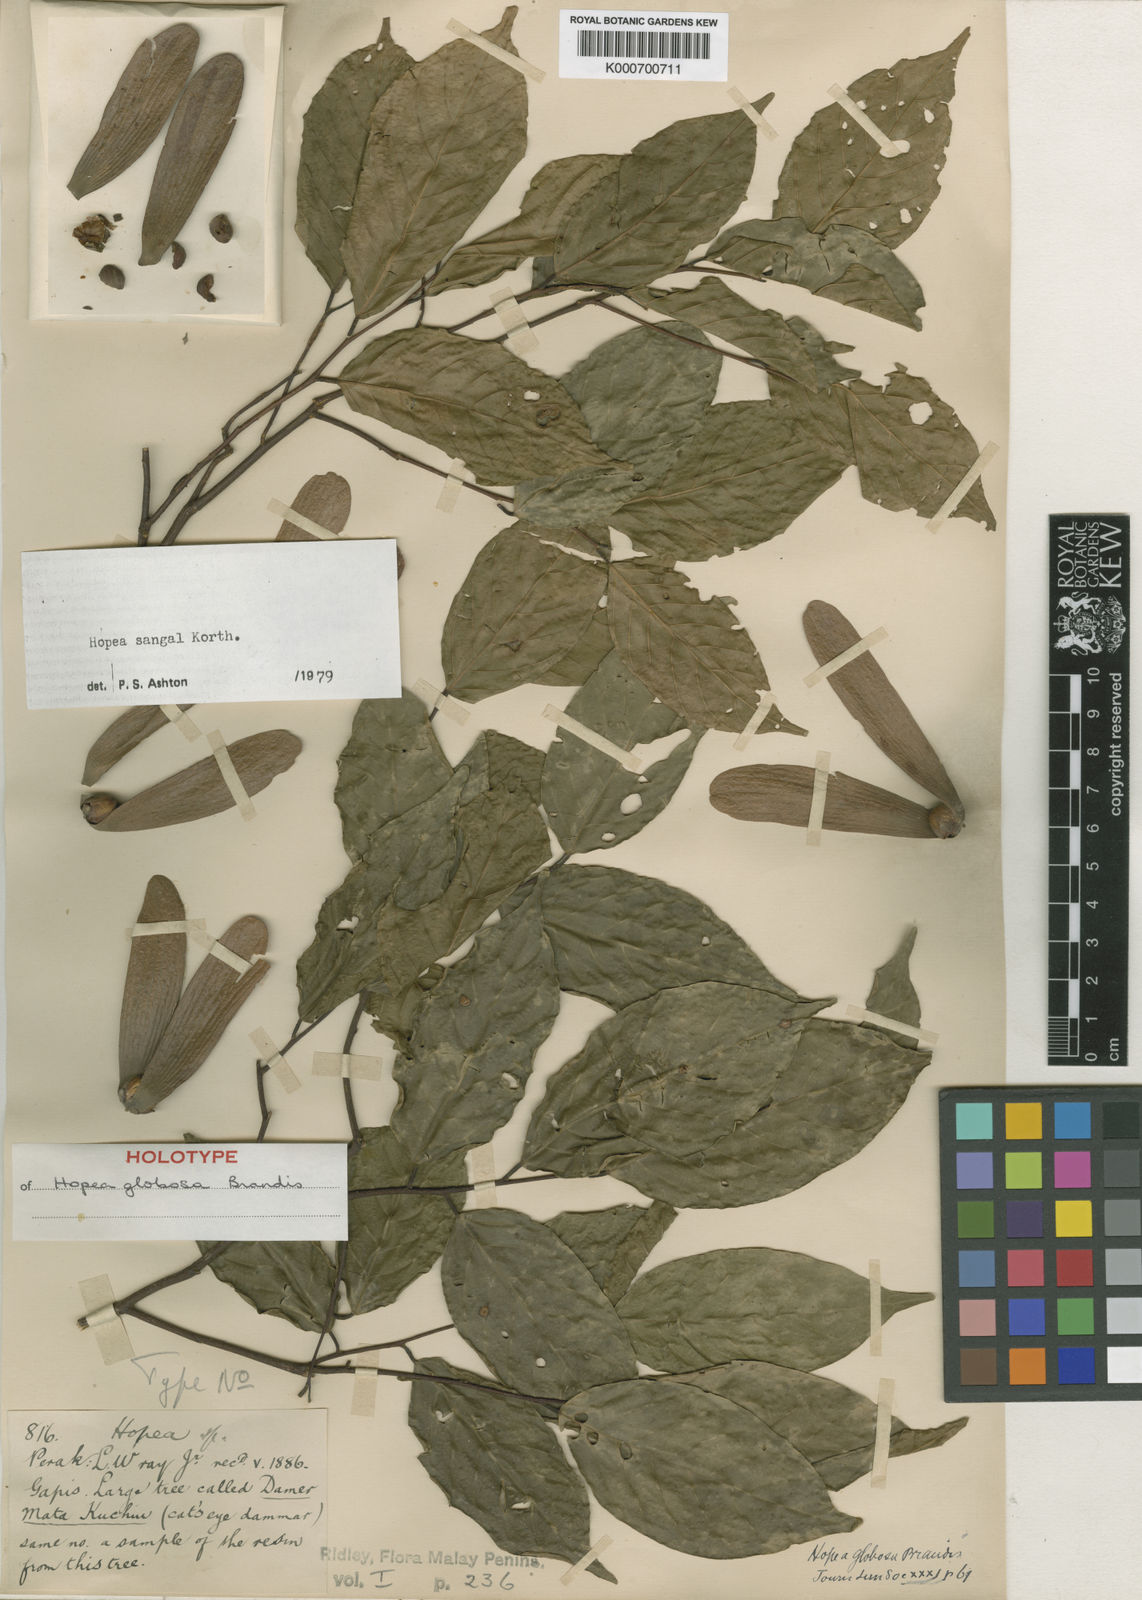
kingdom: Plantae
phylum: Tracheophyta
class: Magnoliopsida
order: Malvales
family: Dipterocarpaceae
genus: Hopea
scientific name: Hopea sangal
